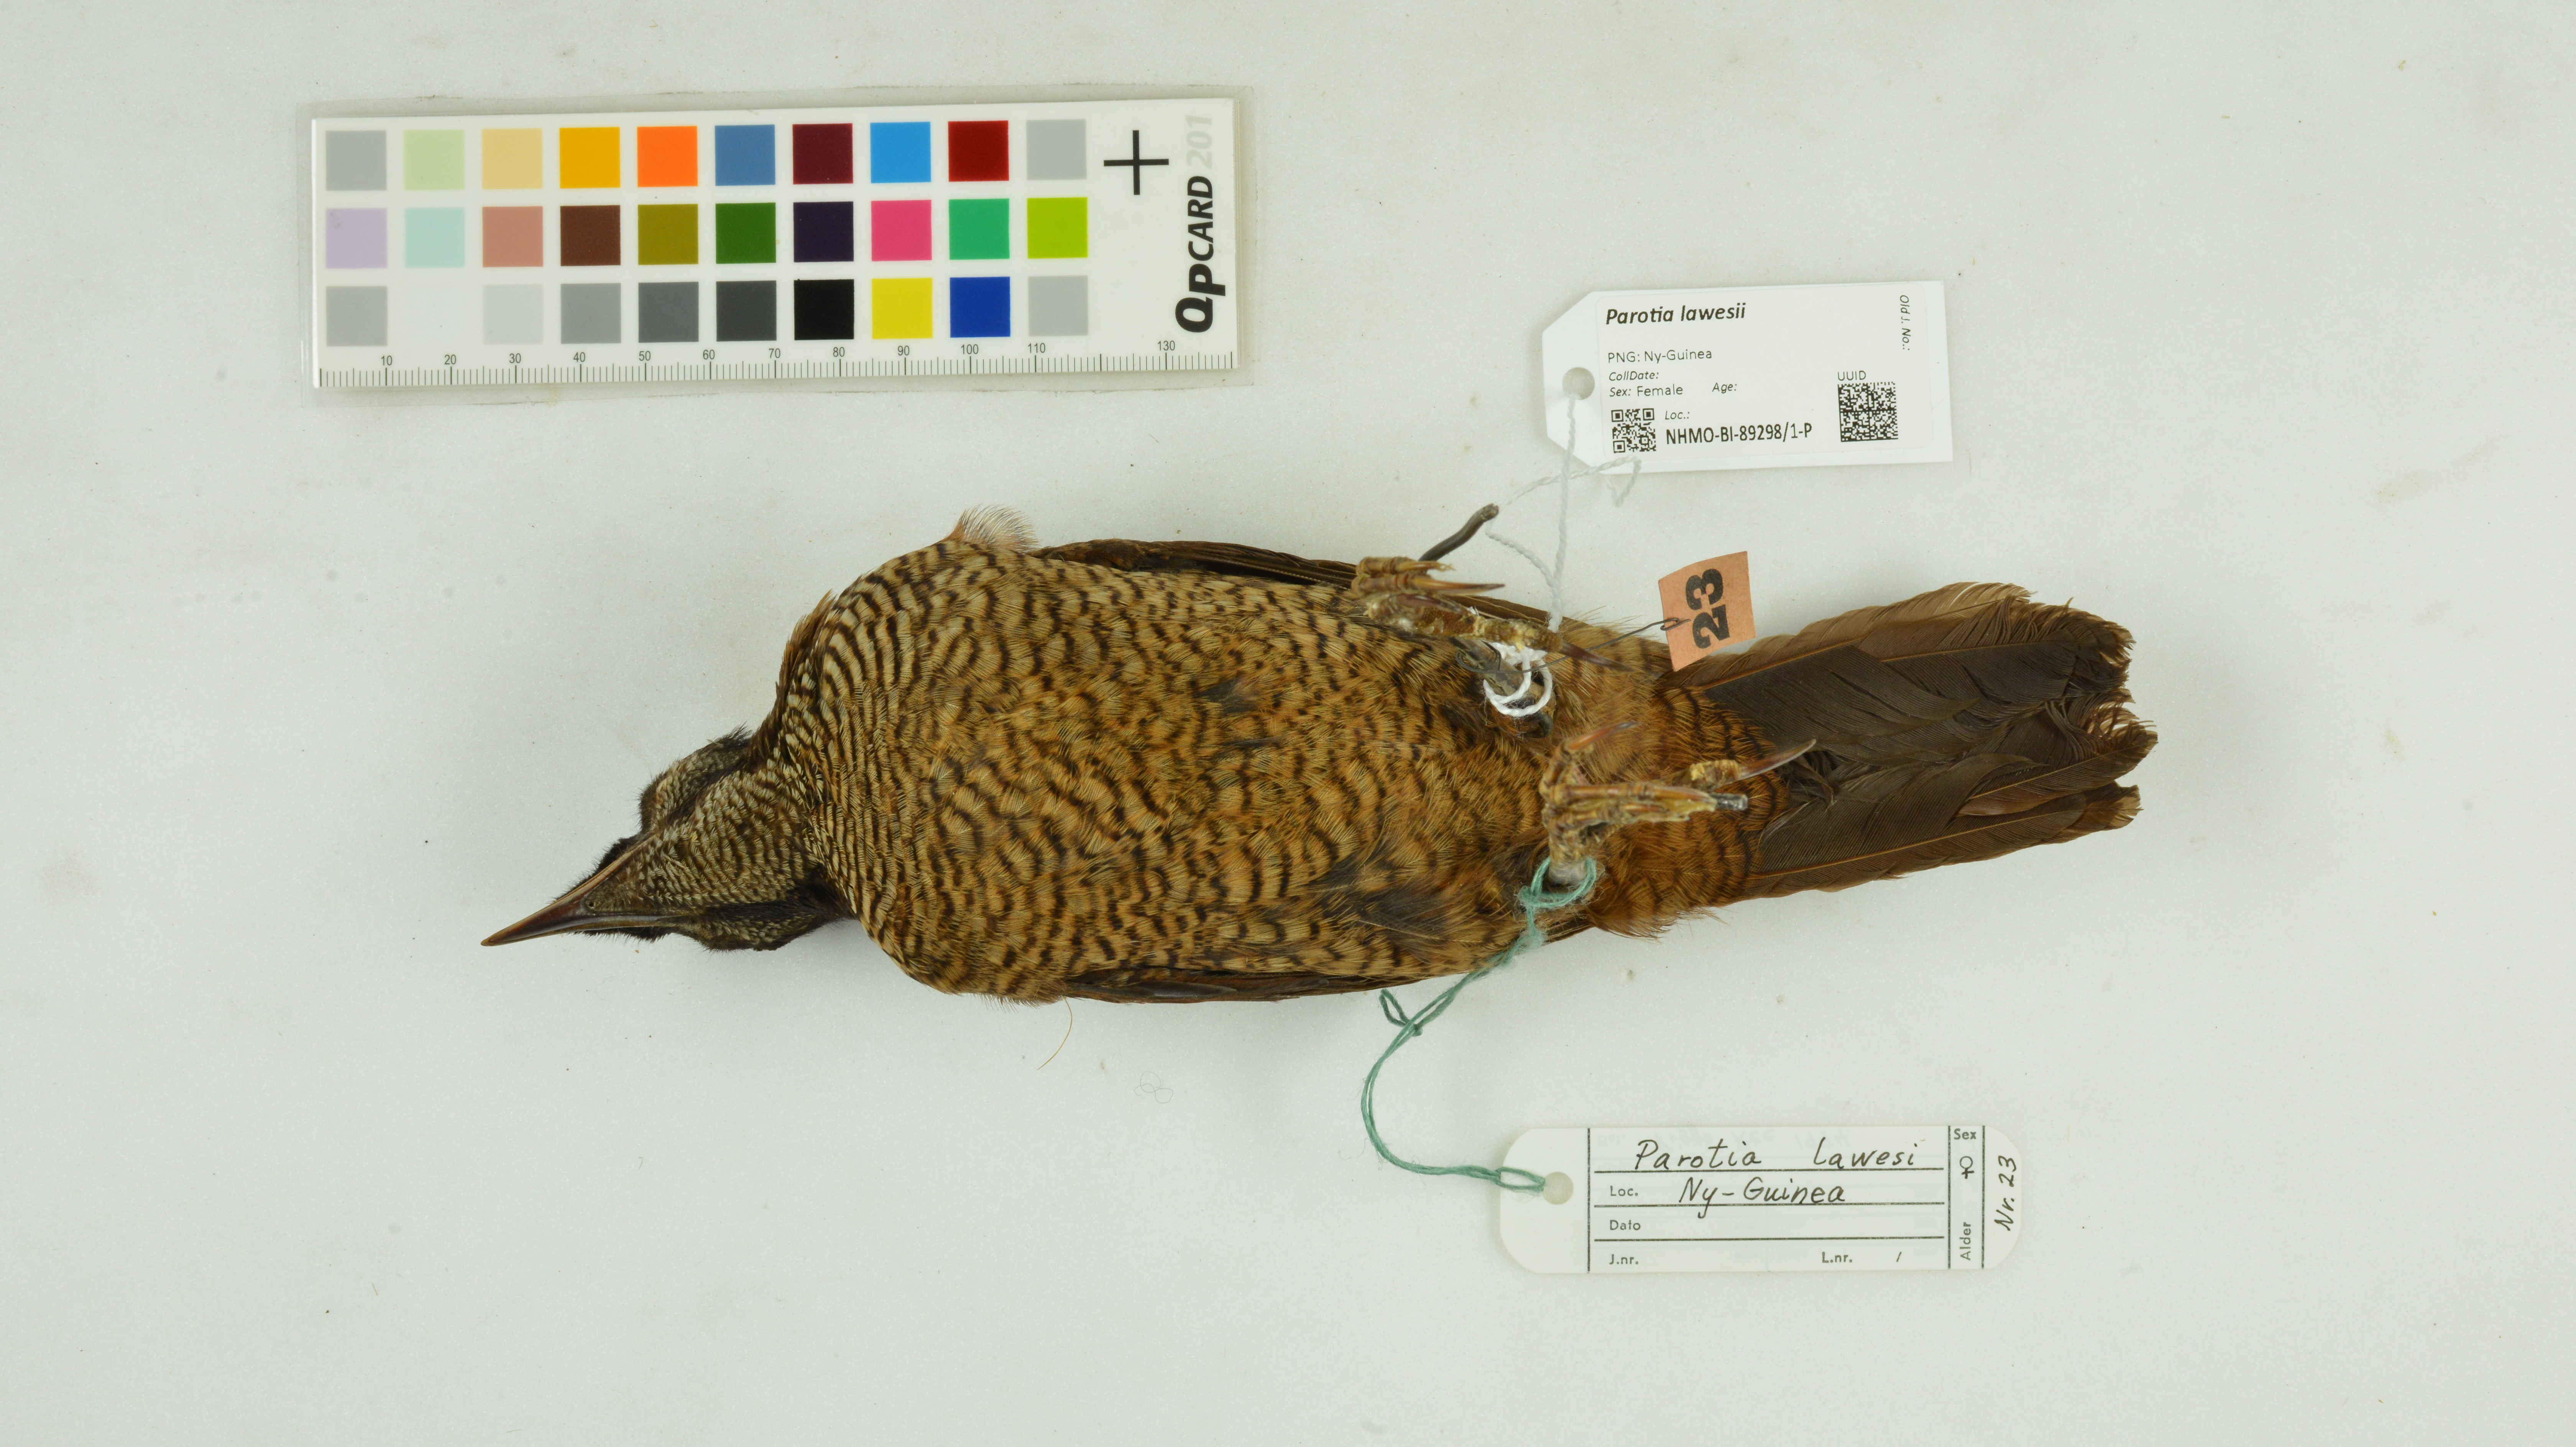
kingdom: Animalia
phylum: Chordata
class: Aves
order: Passeriformes
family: Paradisaeidae
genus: Parotia
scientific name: Parotia lawesii
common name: Lawes's parotia
